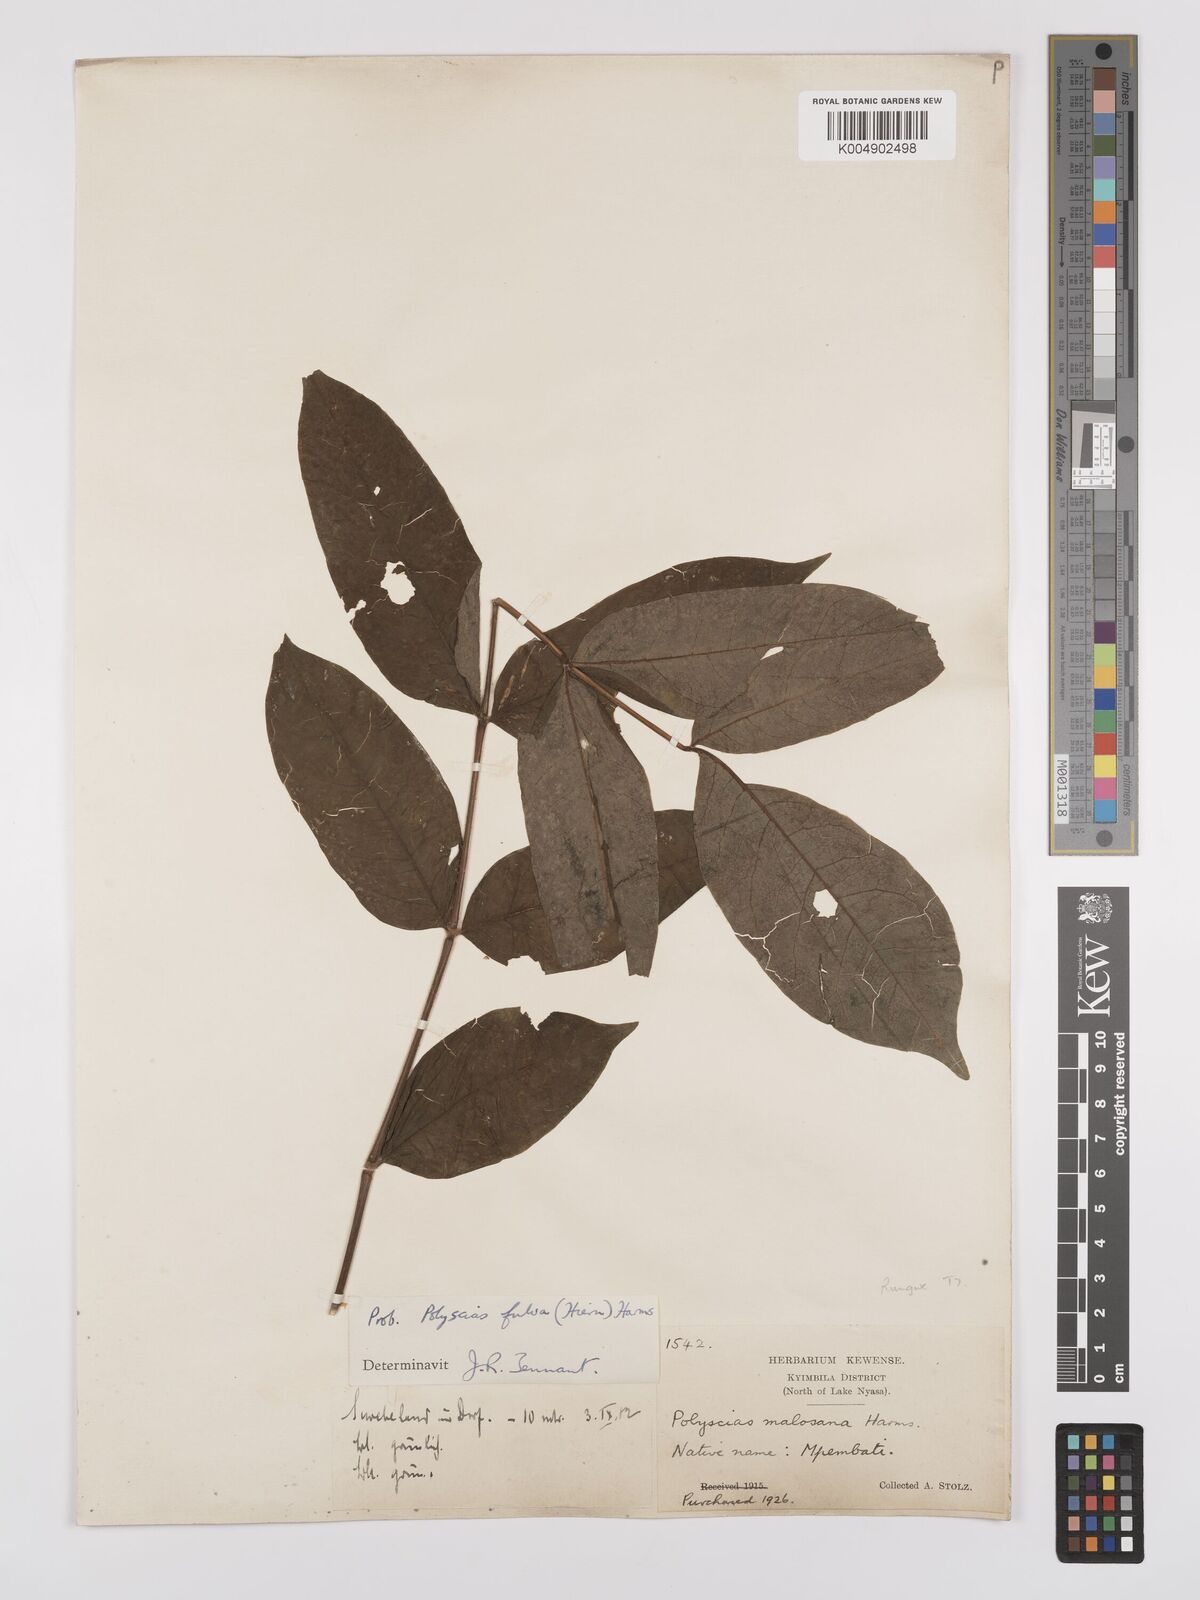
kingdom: Plantae
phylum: Tracheophyta
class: Magnoliopsida
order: Apiales
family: Araliaceae
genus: Polyscias
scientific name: Polyscias fulva
